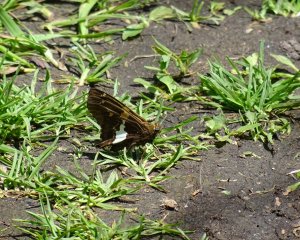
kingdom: Animalia
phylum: Arthropoda
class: Insecta
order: Lepidoptera
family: Hesperiidae
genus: Epargyreus
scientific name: Epargyreus clarus
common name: Silver-spotted Skipper
